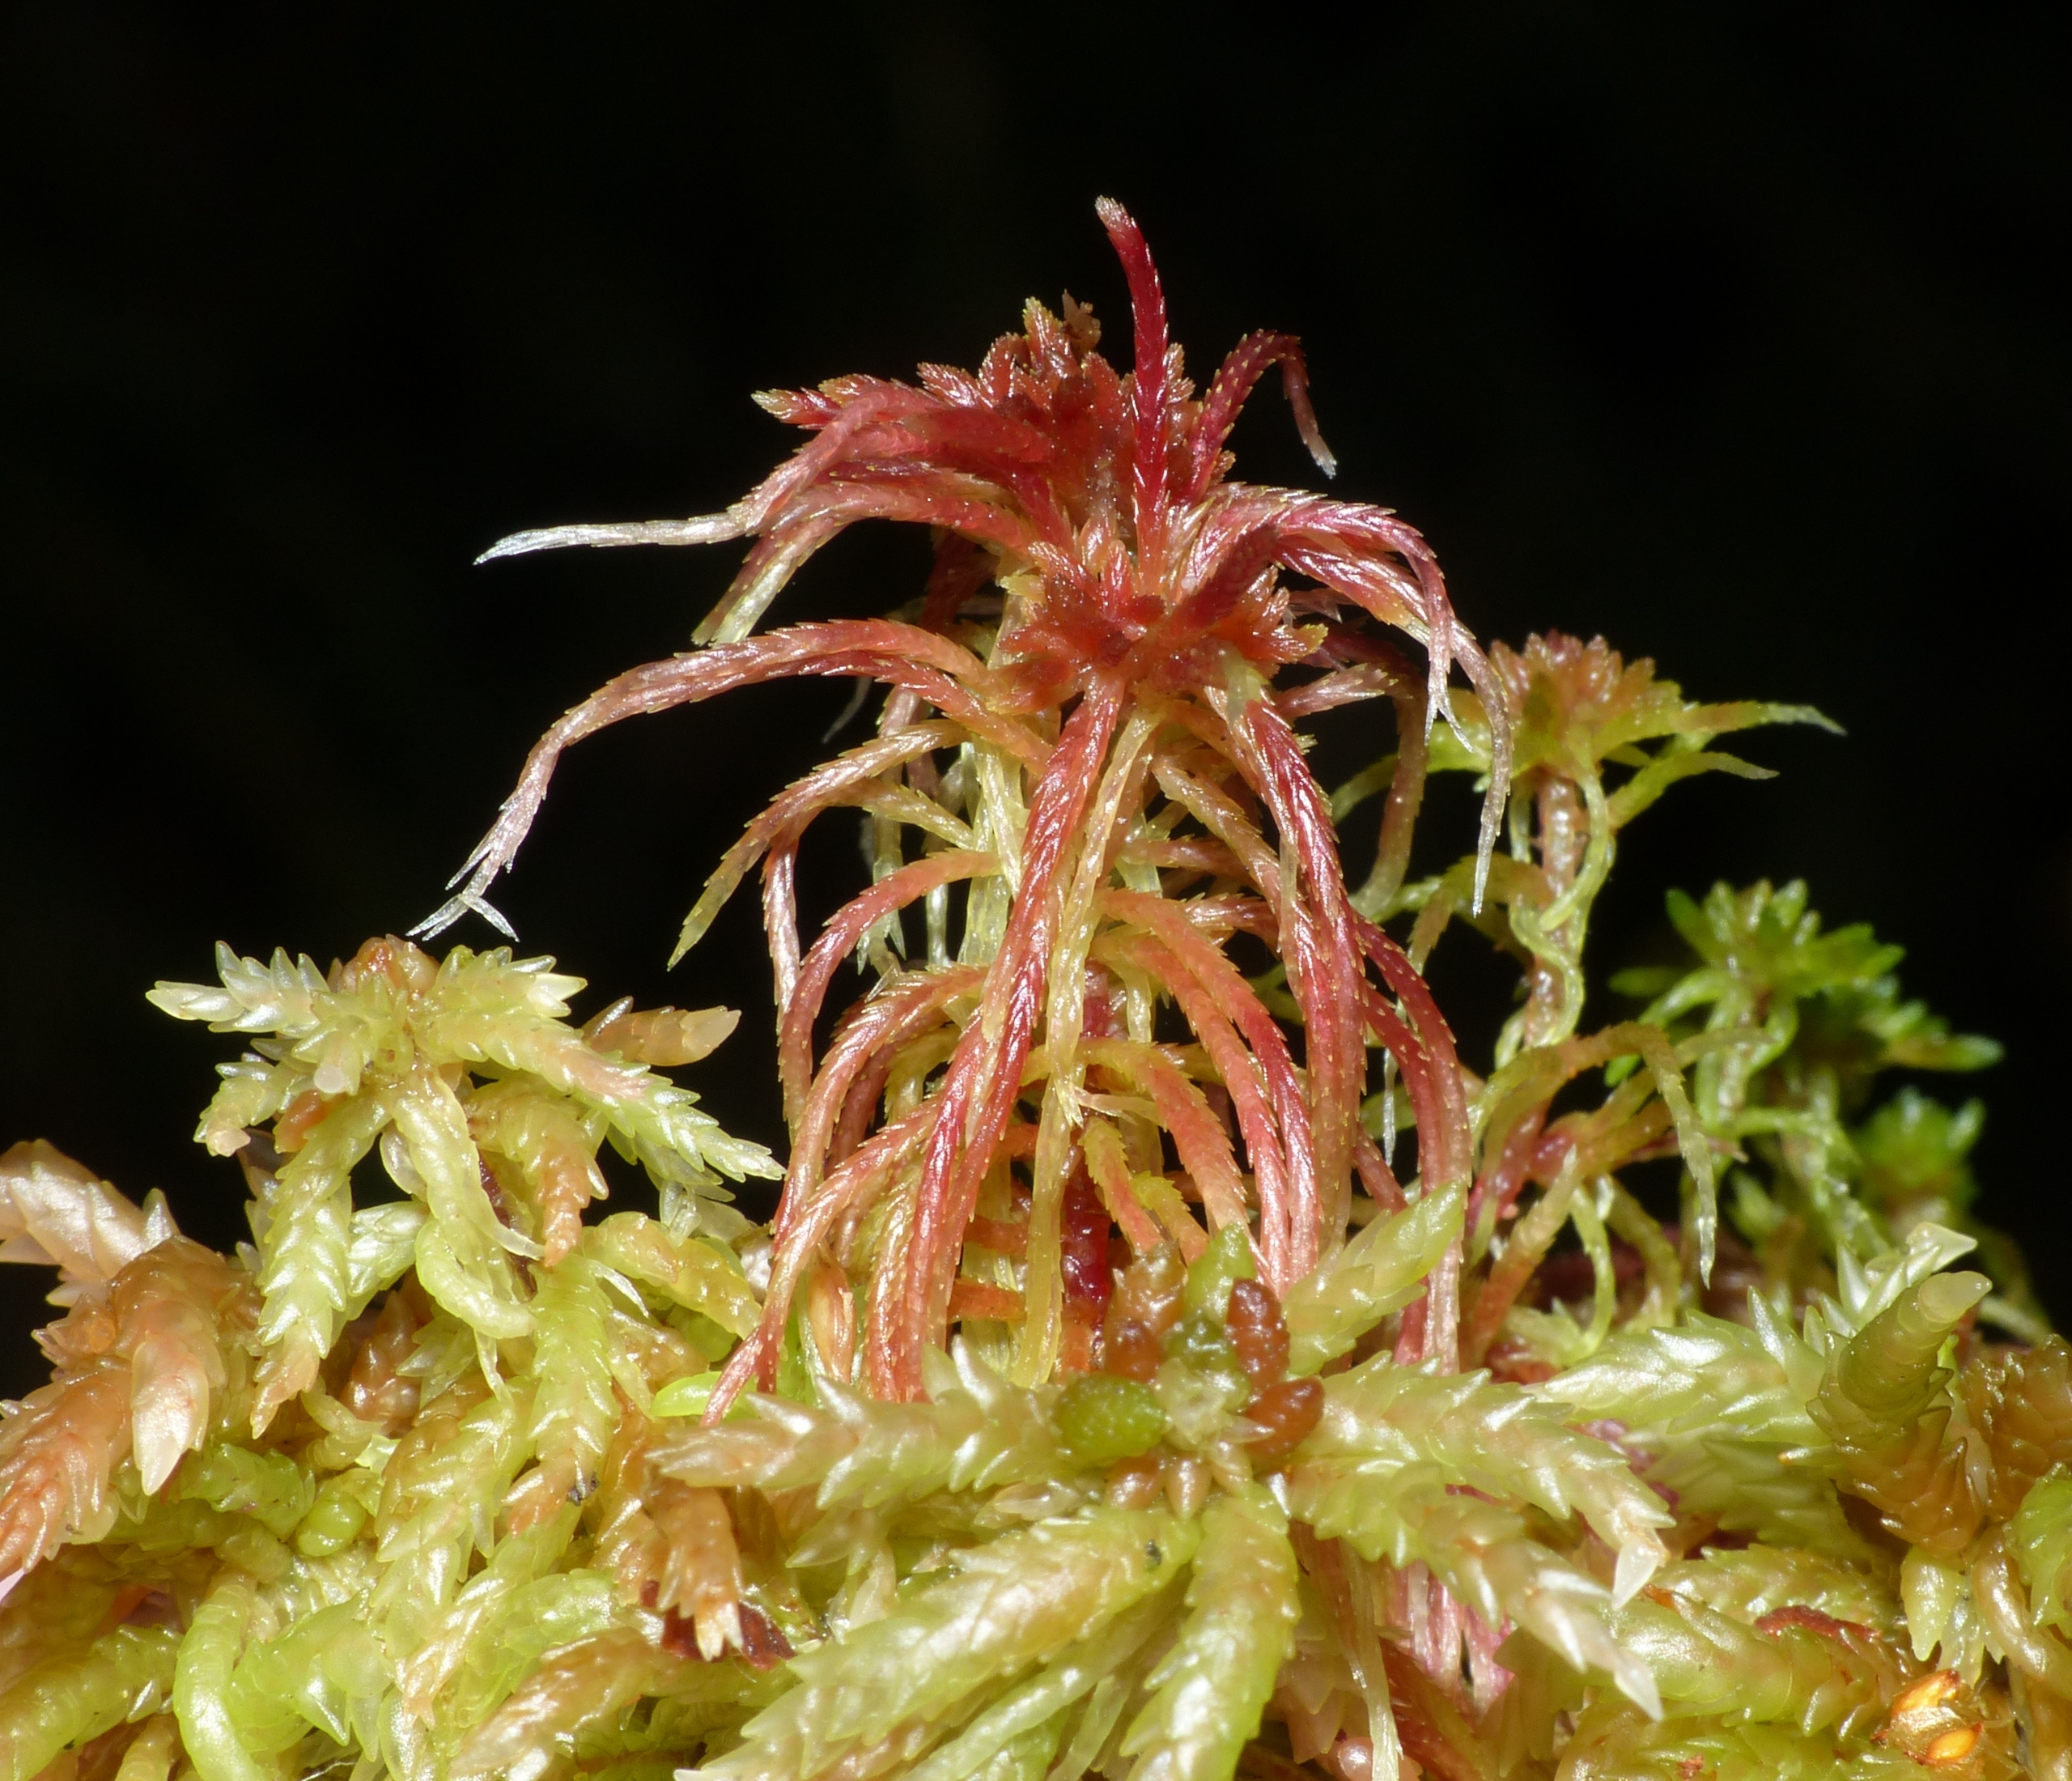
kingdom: Plantae
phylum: Bryophyta
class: Sphagnopsida
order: Sphagnales
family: Sphagnaceae
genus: Sphagnum
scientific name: Sphagnum russowii
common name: Spraglet tørvemos
